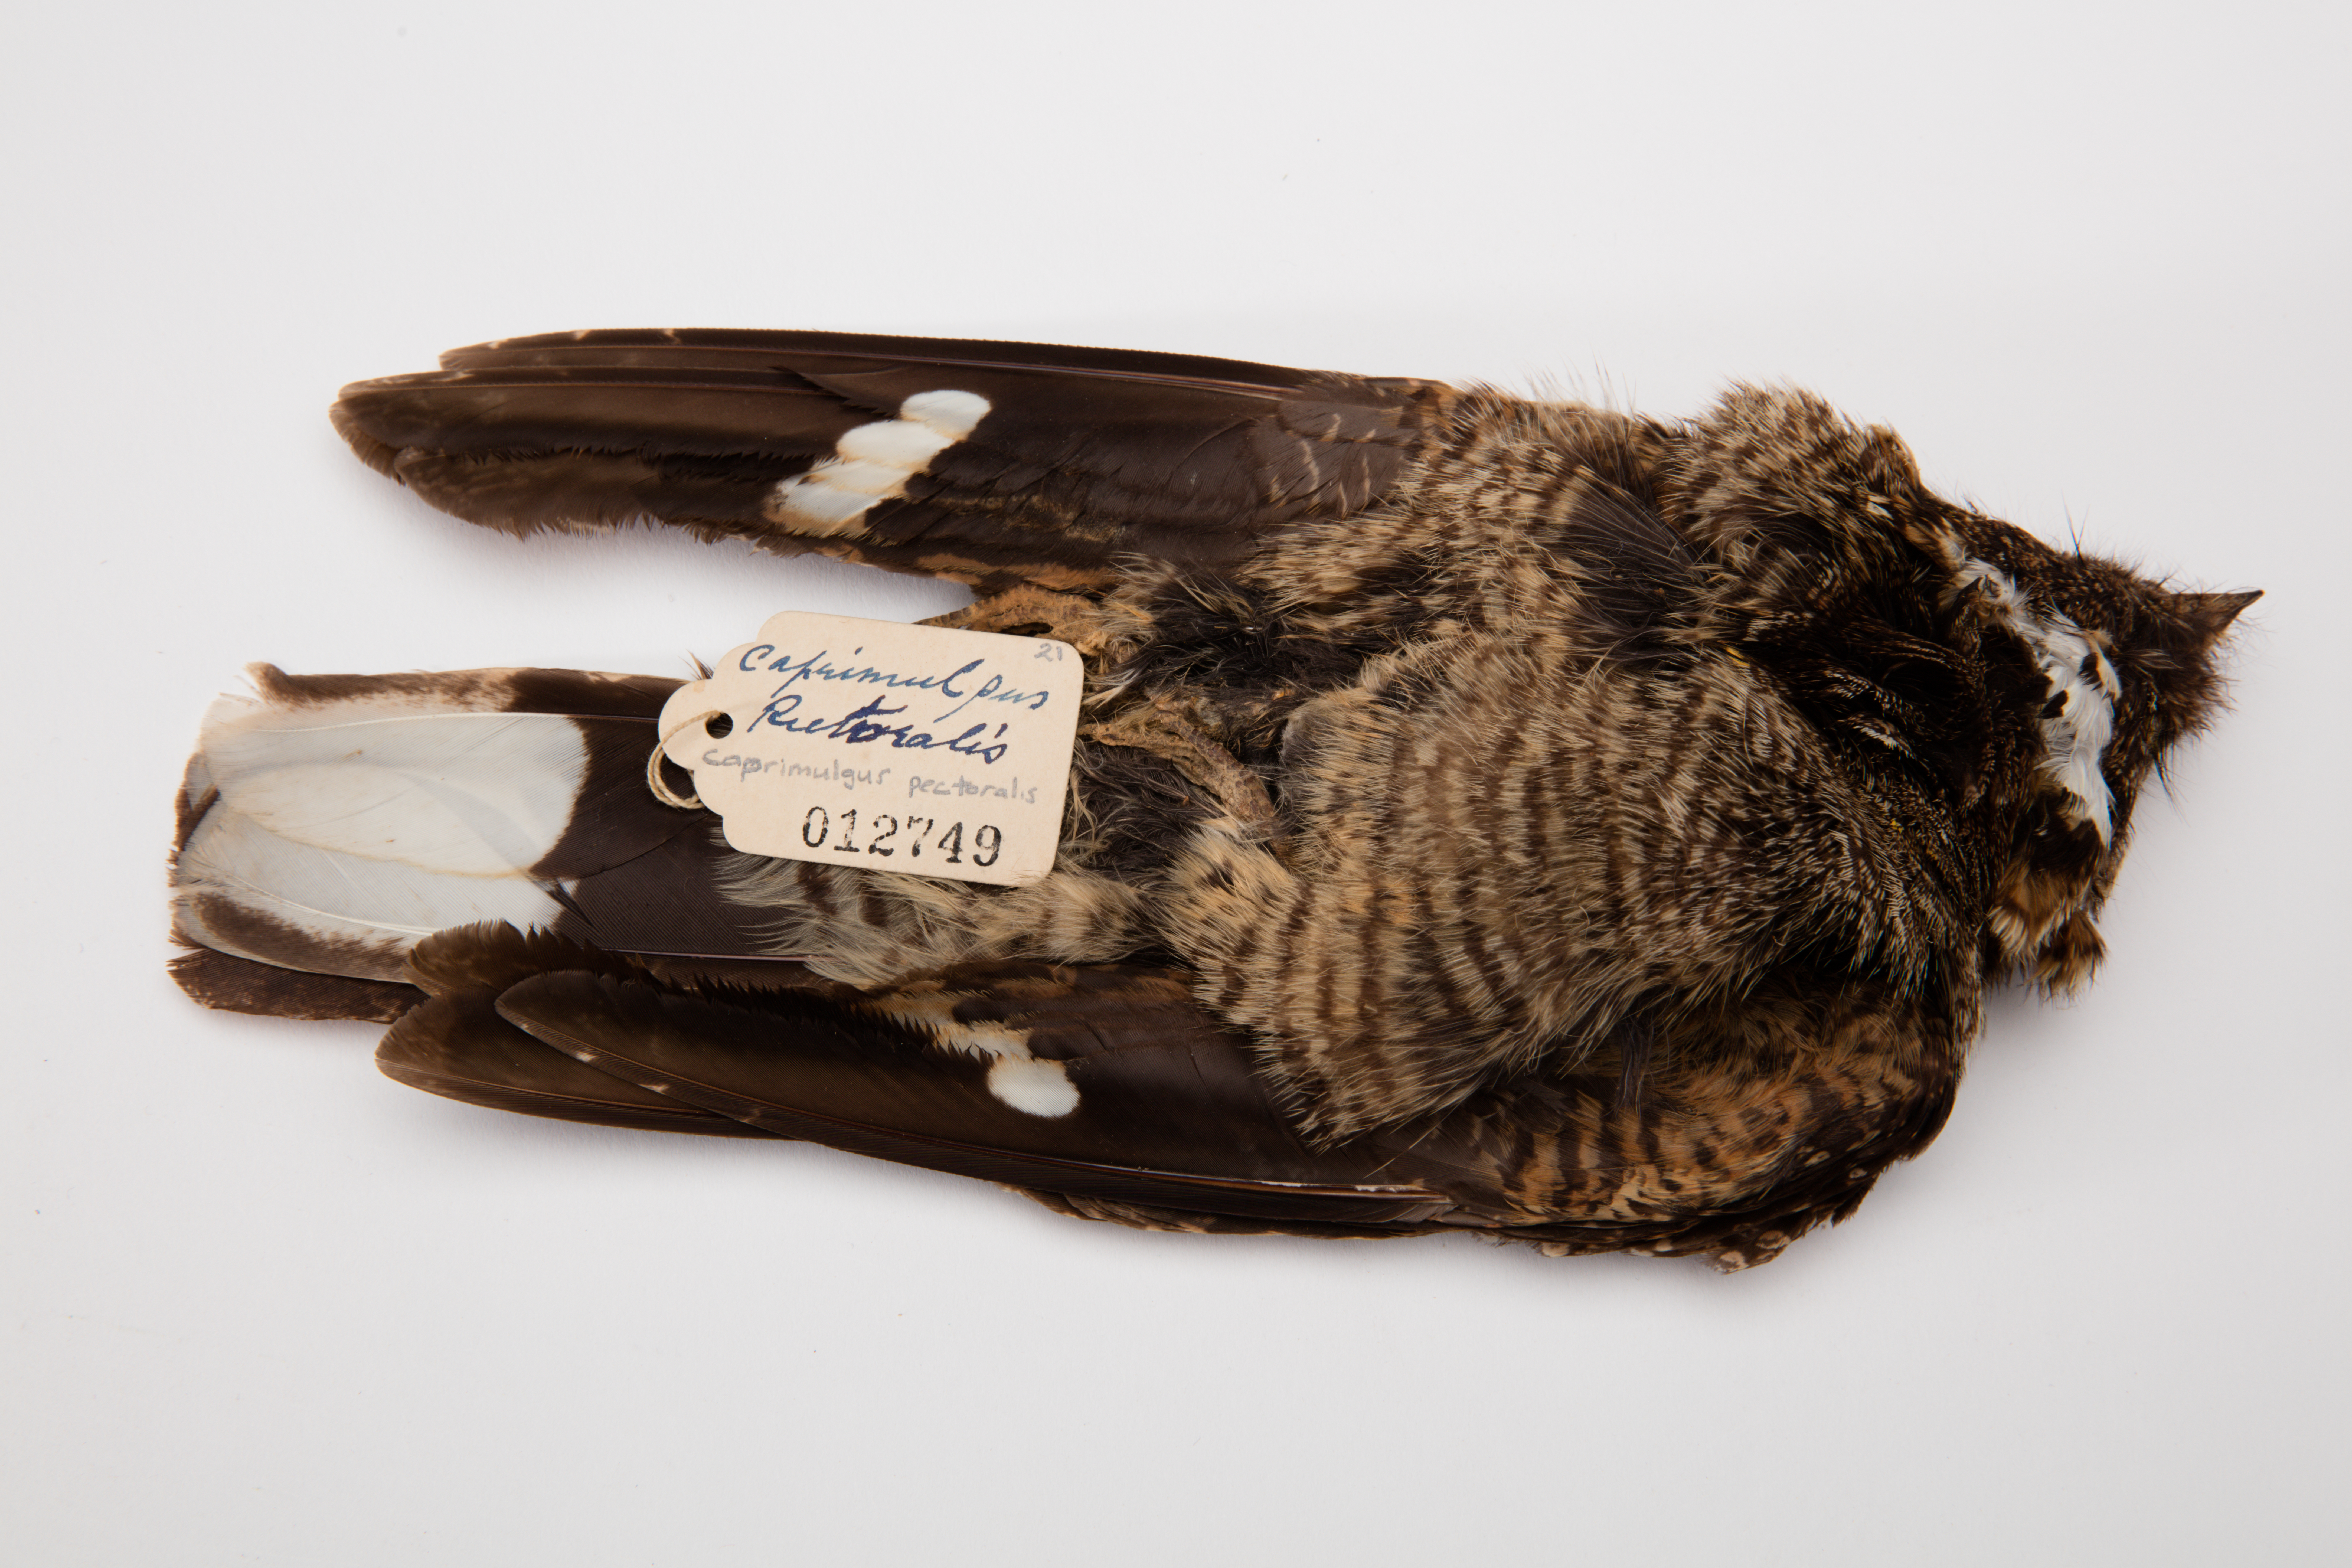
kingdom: Animalia
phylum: Chordata
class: Aves
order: Caprimulgiformes
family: Caprimulgidae
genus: Caprimulgus
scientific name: Caprimulgus pectoralis
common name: Fiery-necked nightjar
